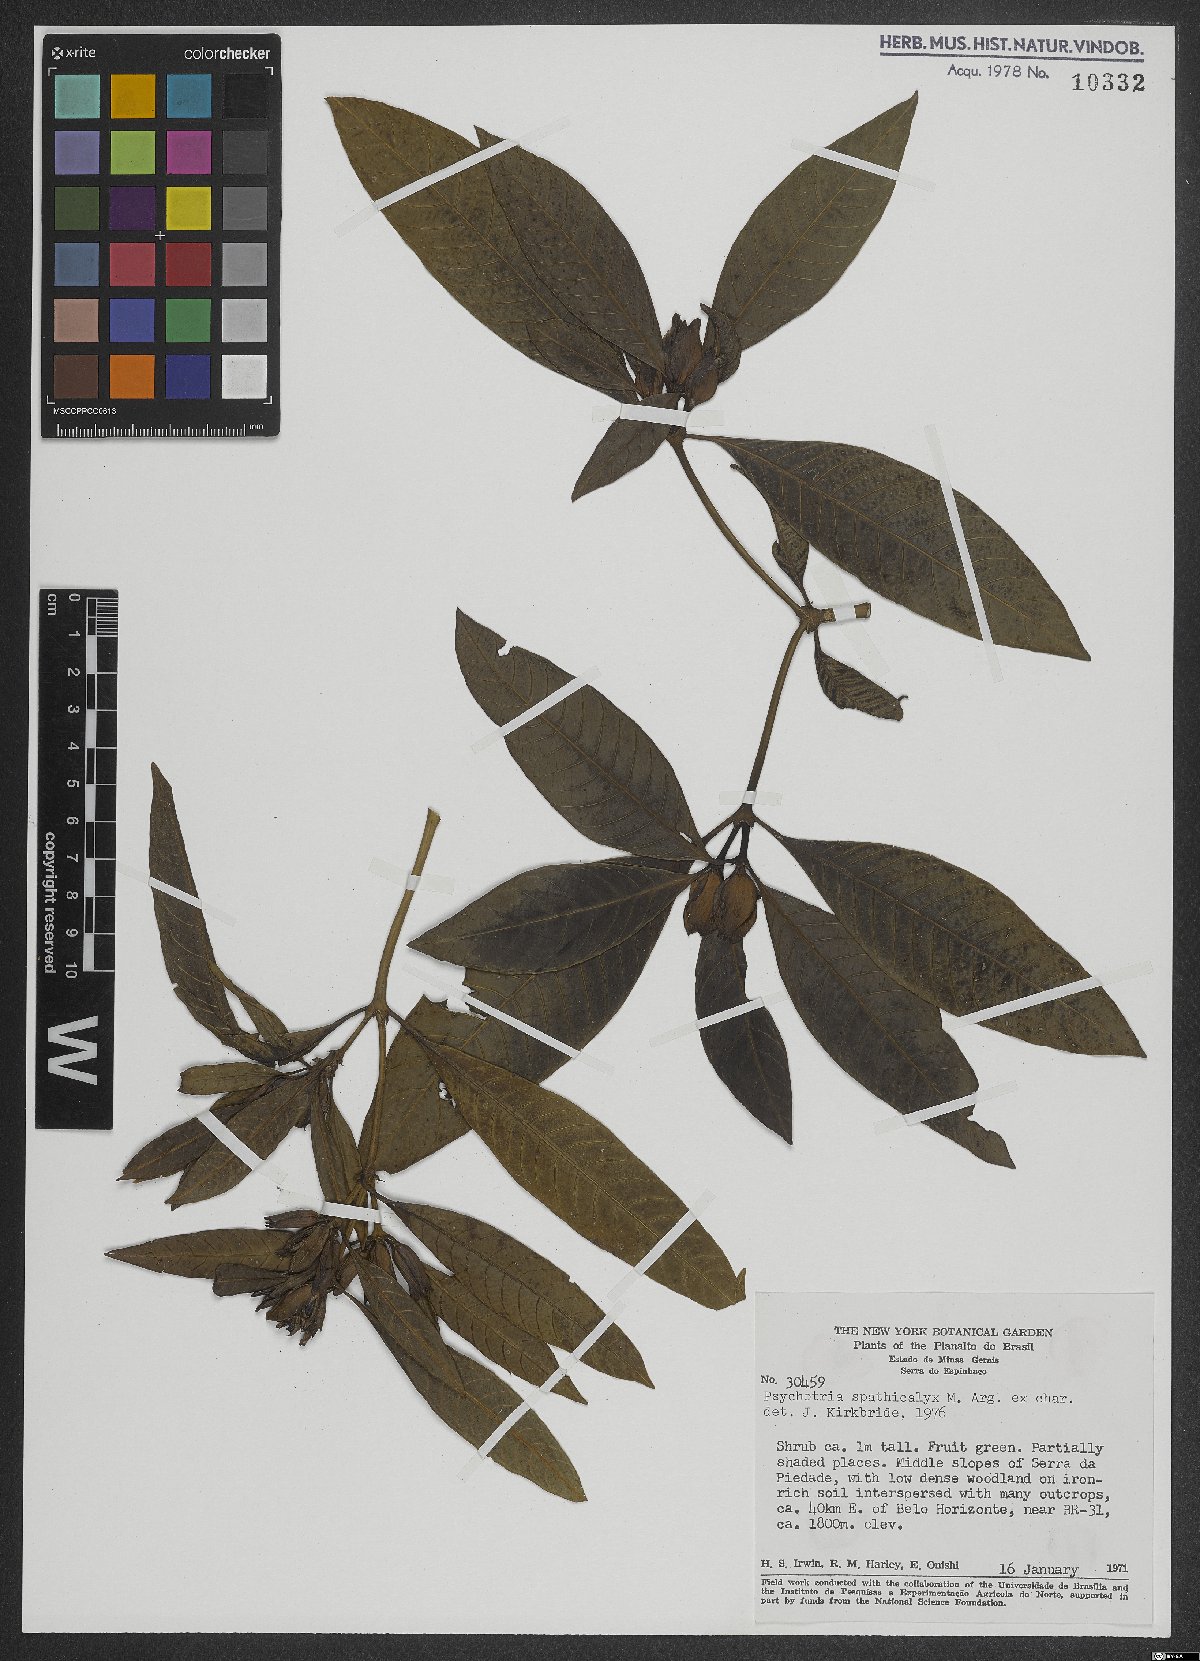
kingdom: Plantae
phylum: Tracheophyta
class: Magnoliopsida
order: Gentianales
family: Rubiaceae
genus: Psychotria
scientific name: Psychotria spathicalyx
